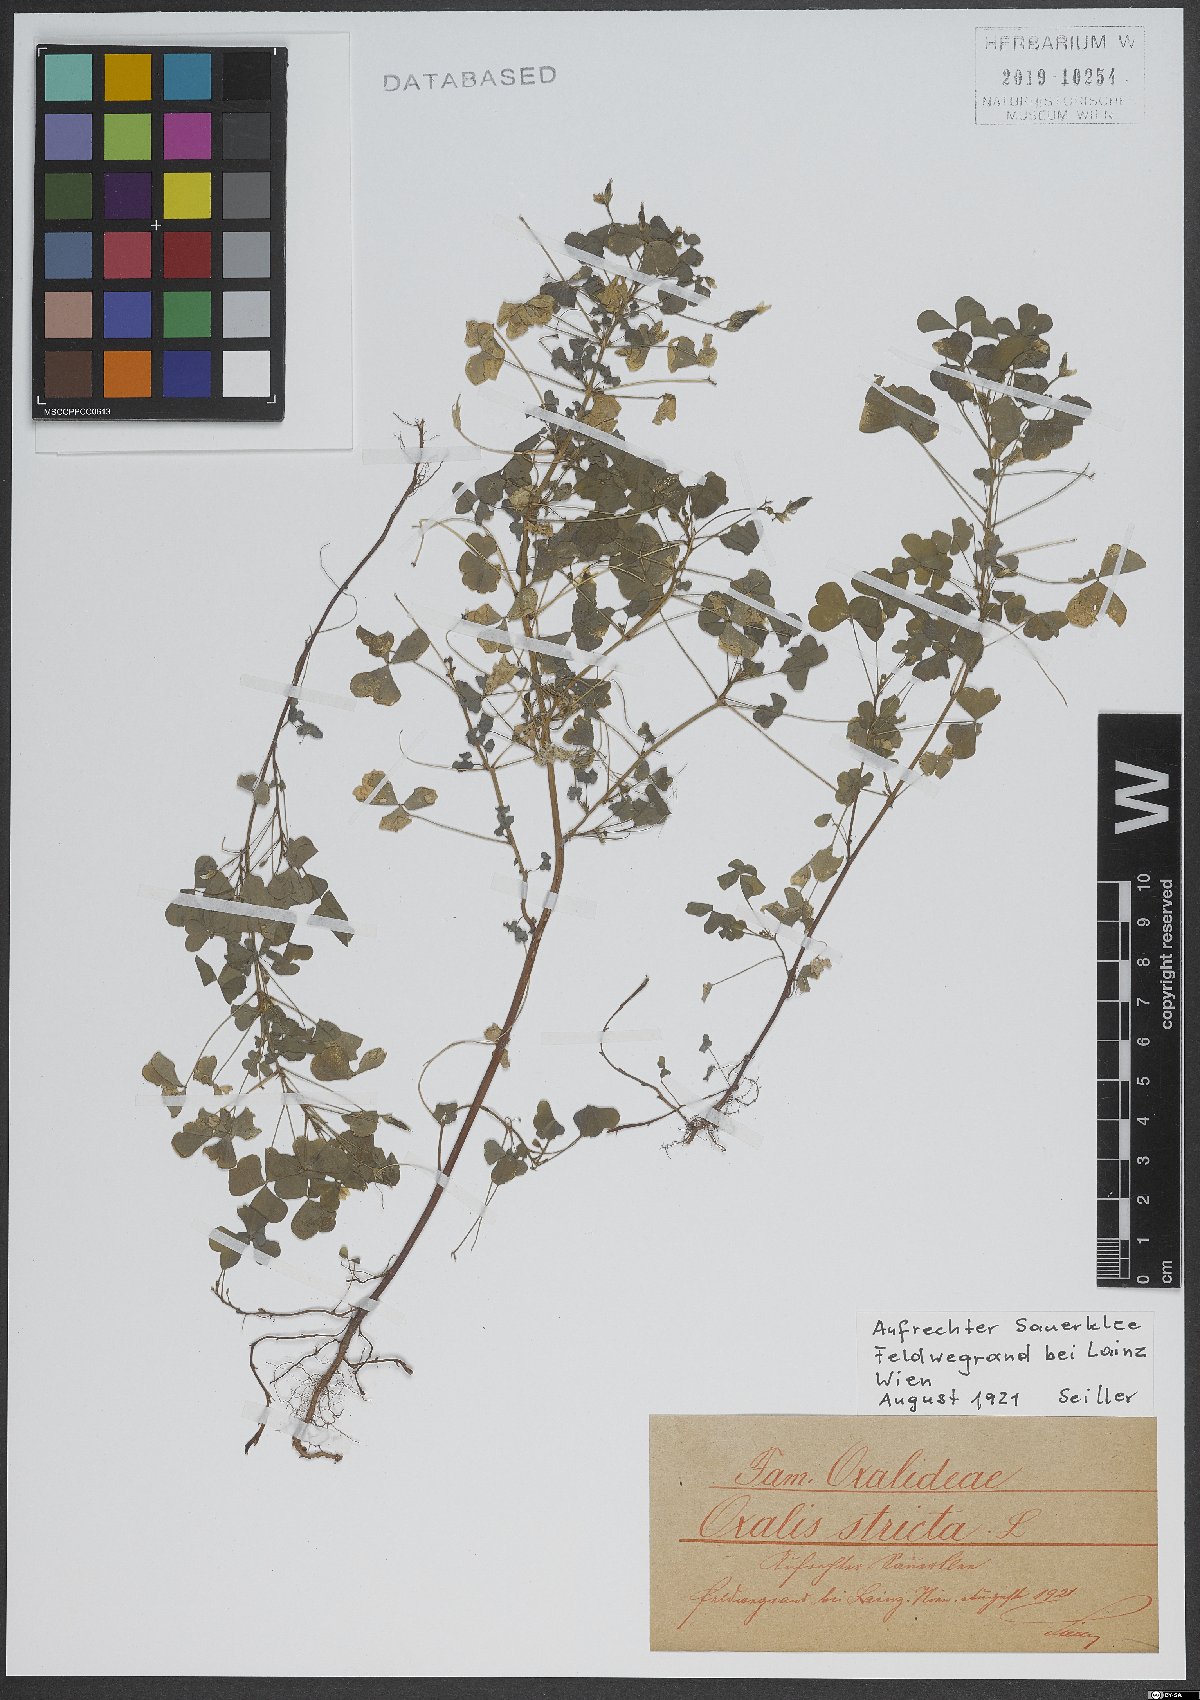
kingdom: Plantae
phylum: Tracheophyta
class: Magnoliopsida
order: Oxalidales
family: Oxalidaceae
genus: Oxalis
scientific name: Oxalis stricta
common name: Upright yellow-sorrel
